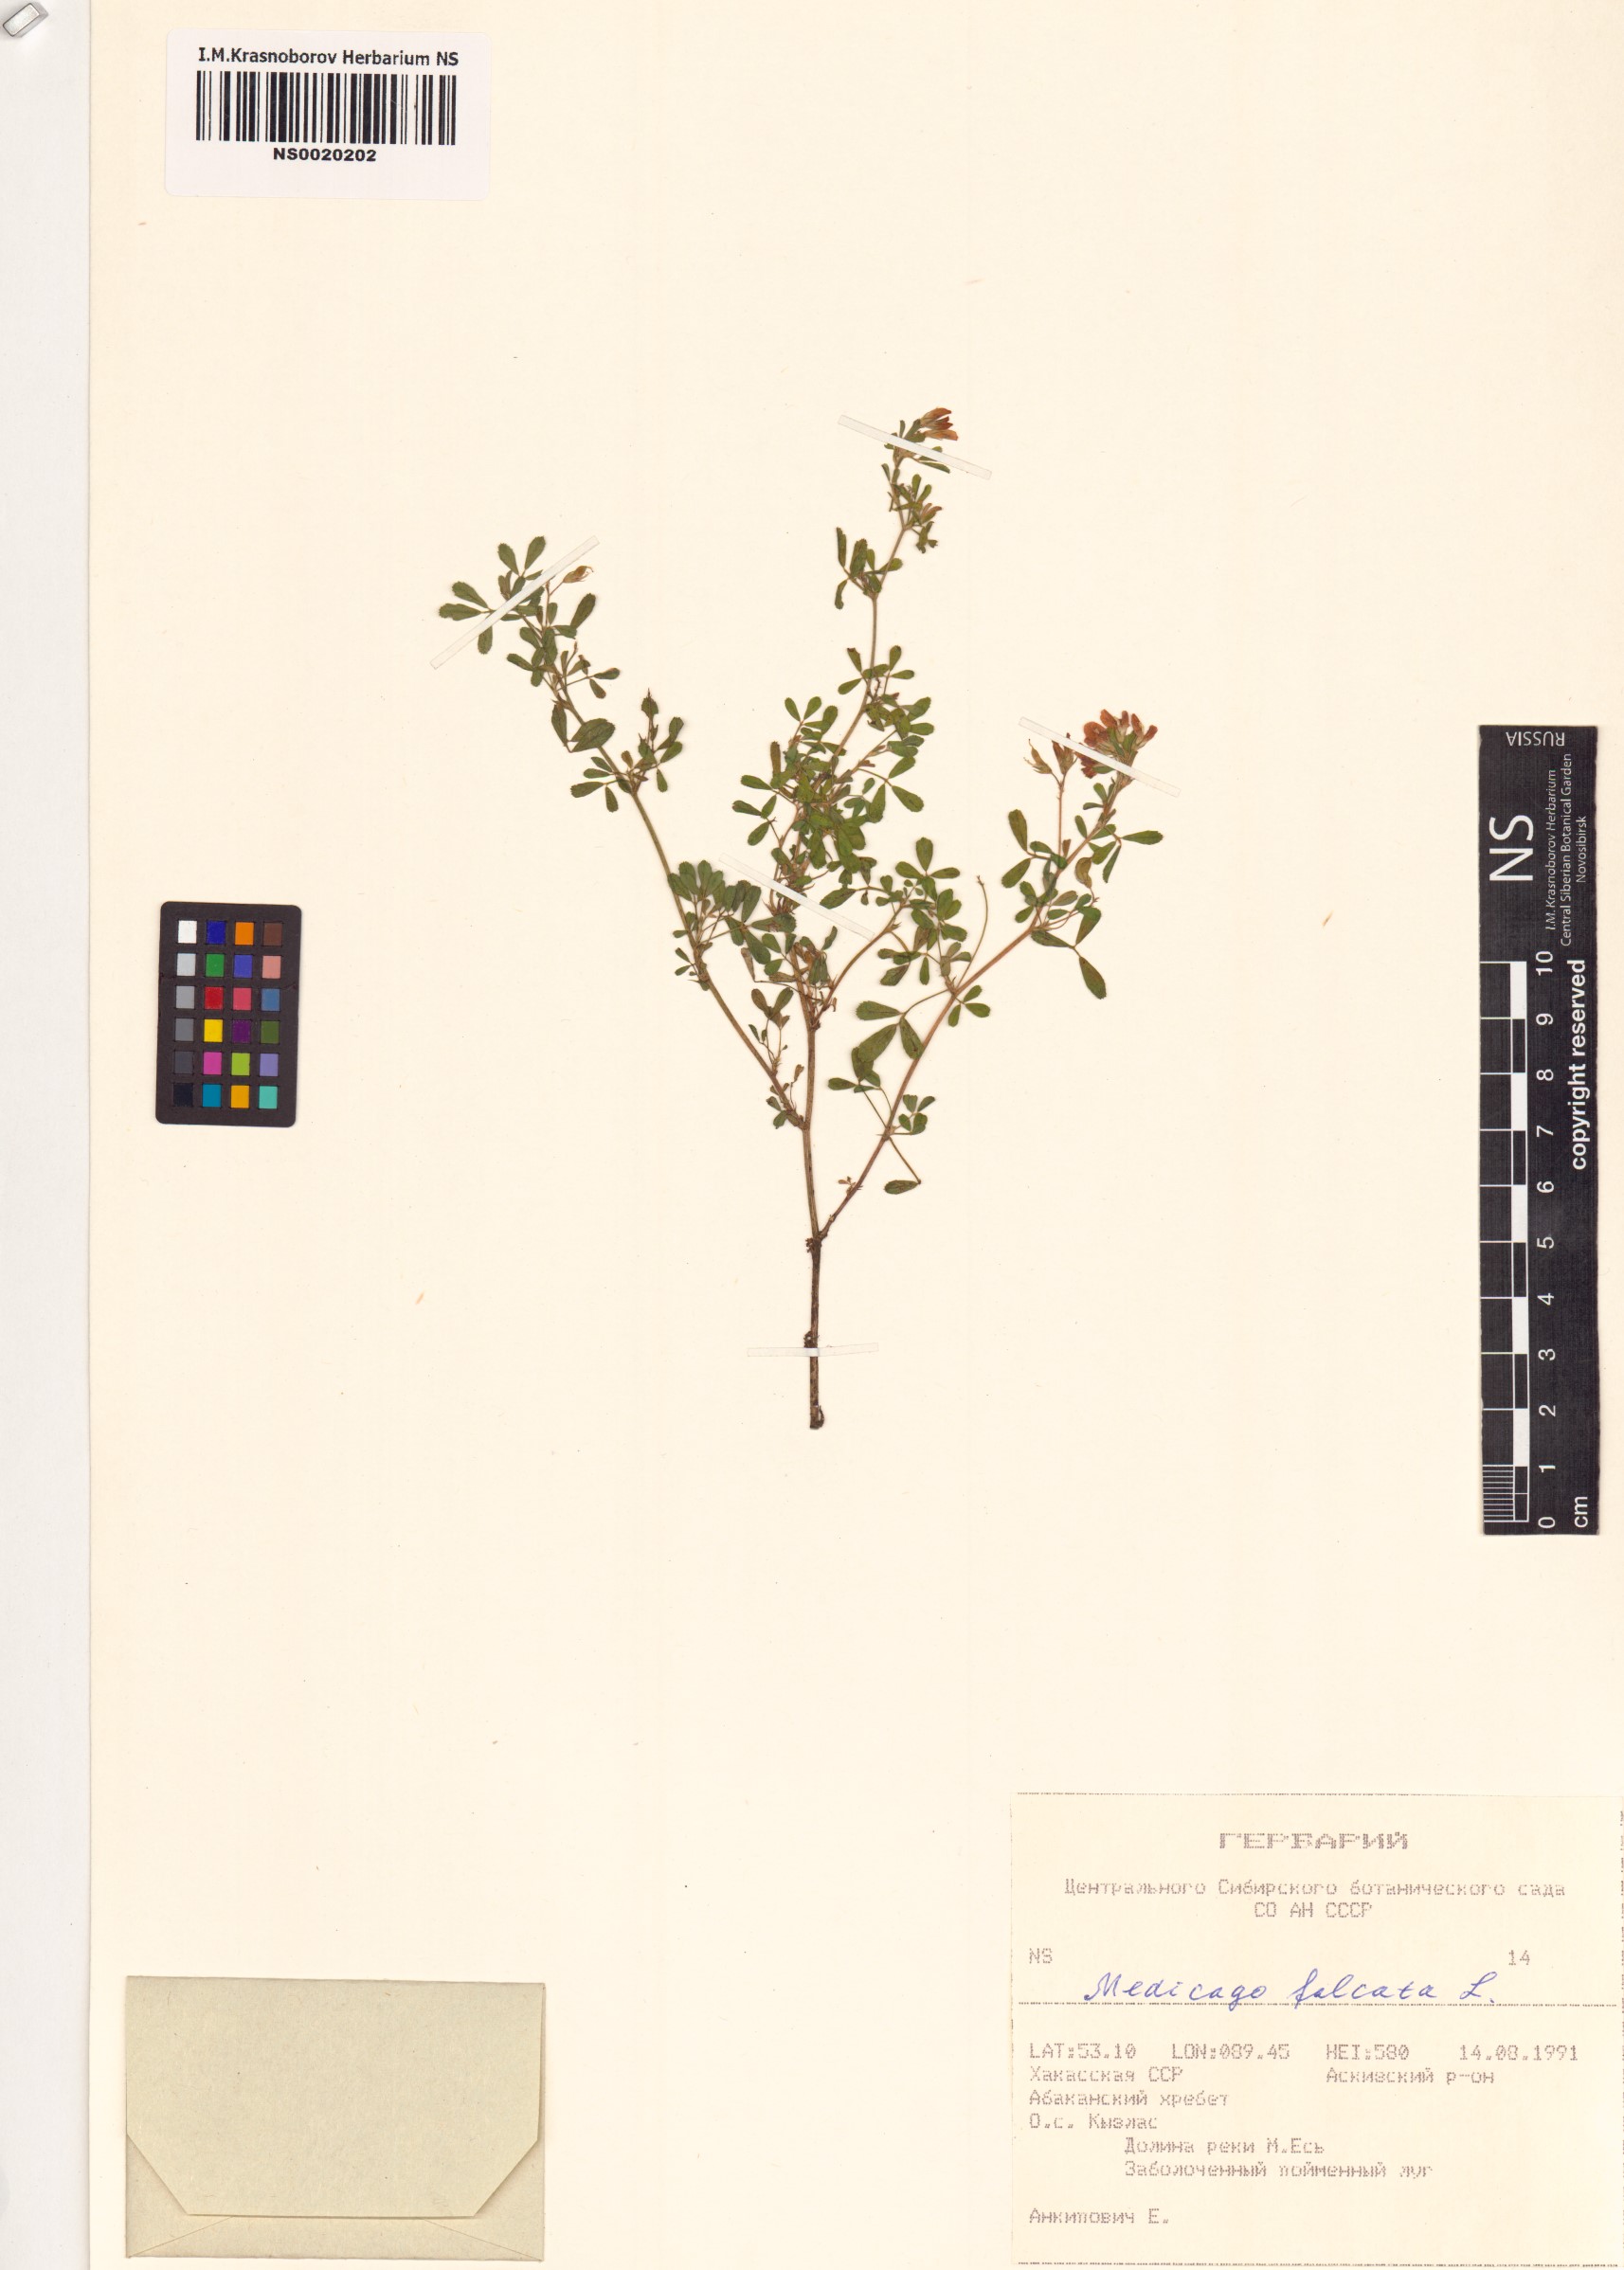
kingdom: Plantae
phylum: Tracheophyta
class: Magnoliopsida
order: Fabales
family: Fabaceae
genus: Medicago
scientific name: Medicago falcata
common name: Sickle medick
